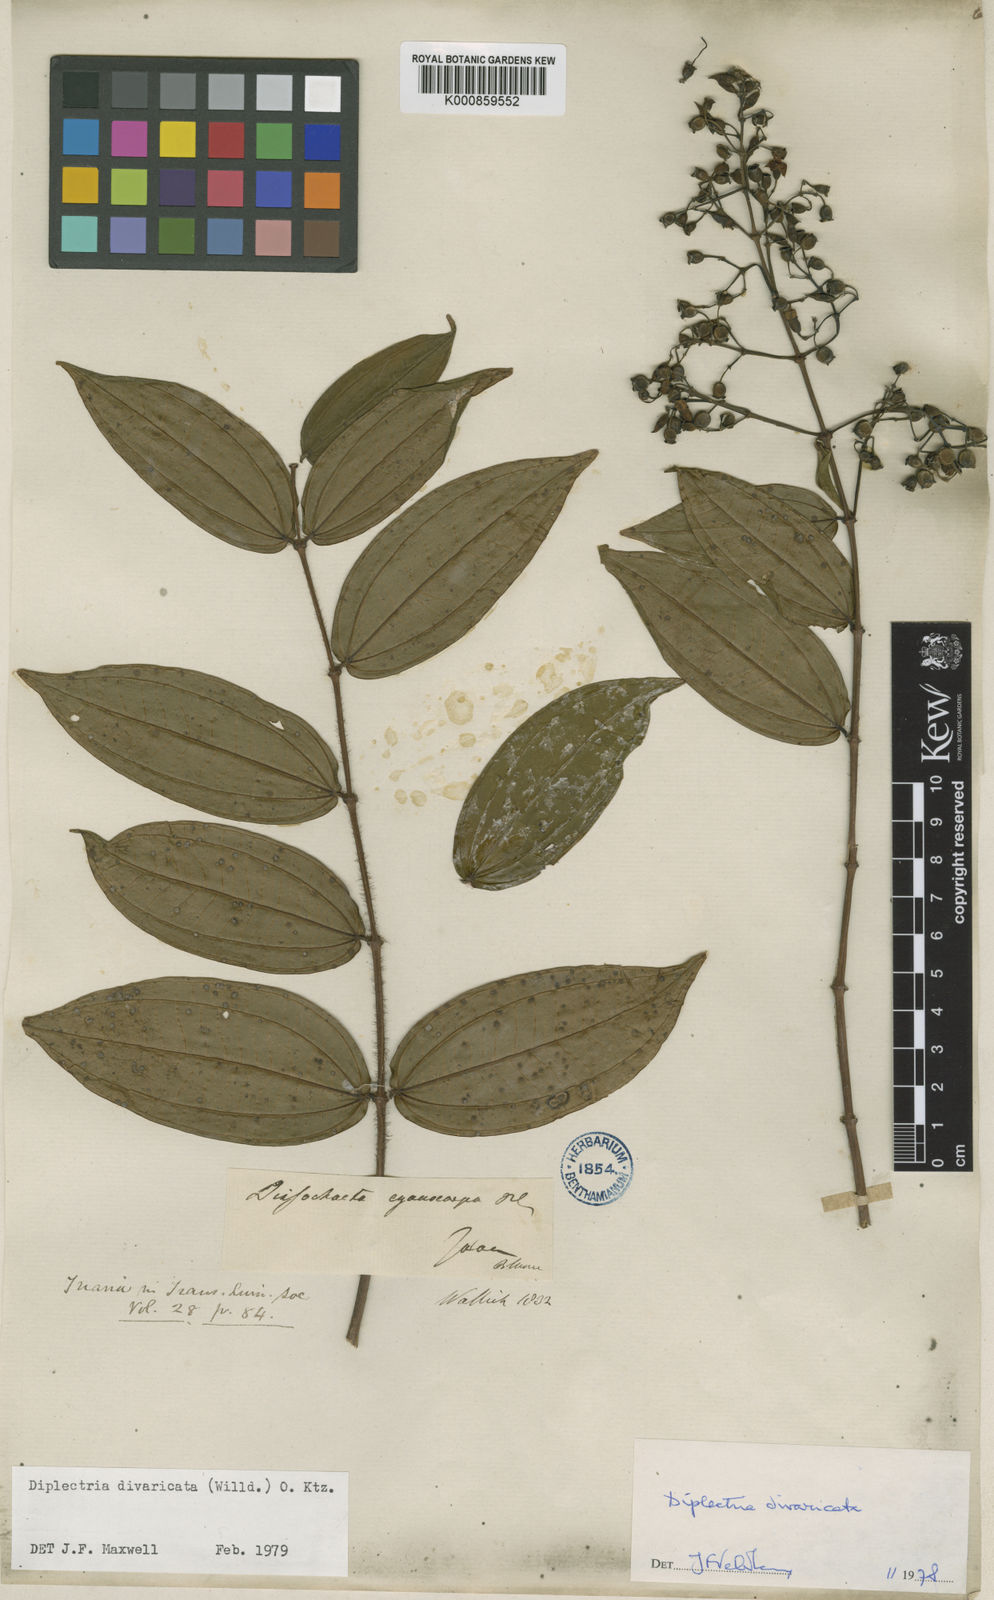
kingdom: Plantae
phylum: Tracheophyta
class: Magnoliopsida
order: Myrtales
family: Melastomataceae
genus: Diplectria
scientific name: Diplectria divaricata
